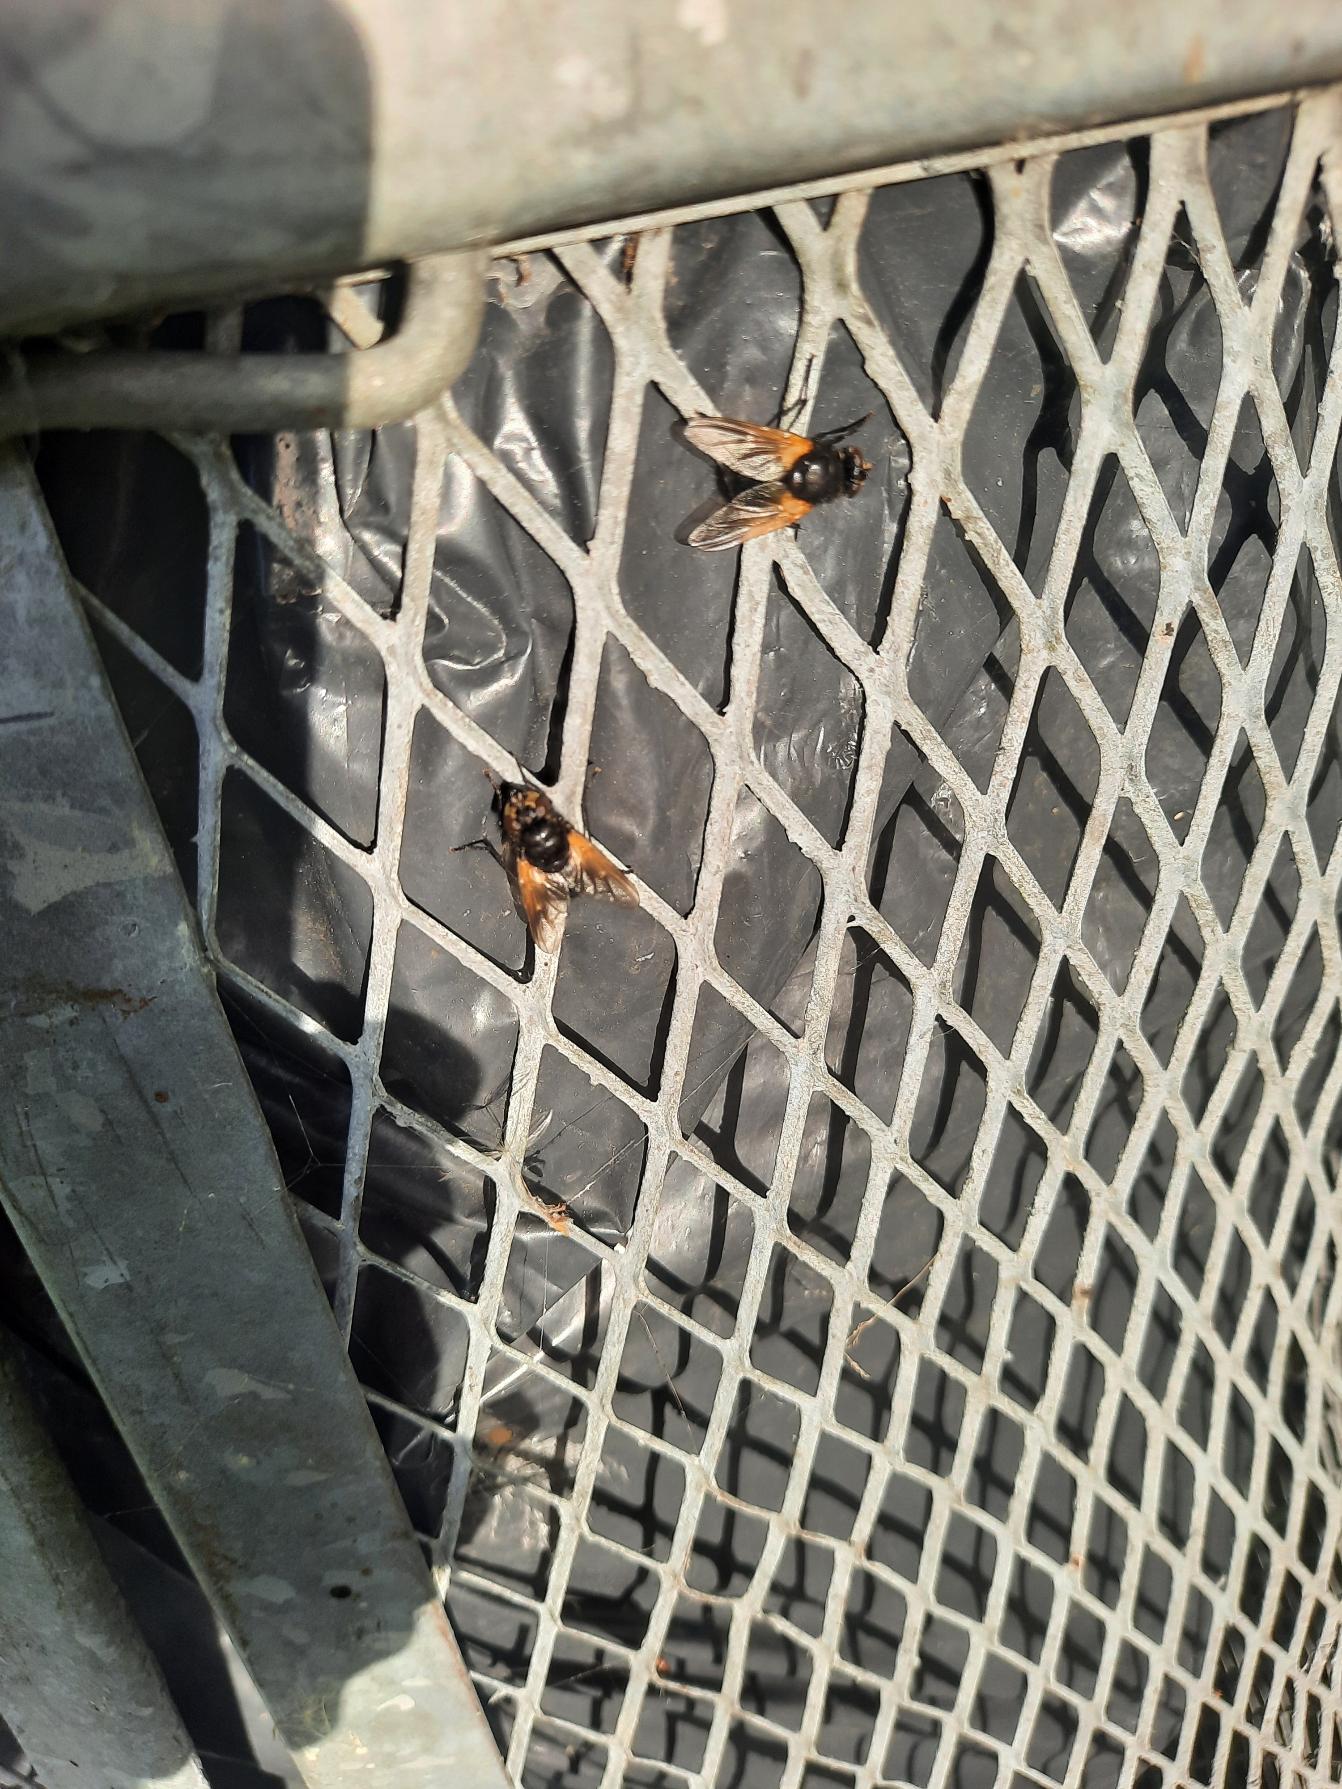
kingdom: Animalia
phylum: Arthropoda
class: Insecta
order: Diptera
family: Muscidae
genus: Mesembrina
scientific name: Mesembrina meridiana
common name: Gulvinget flue
